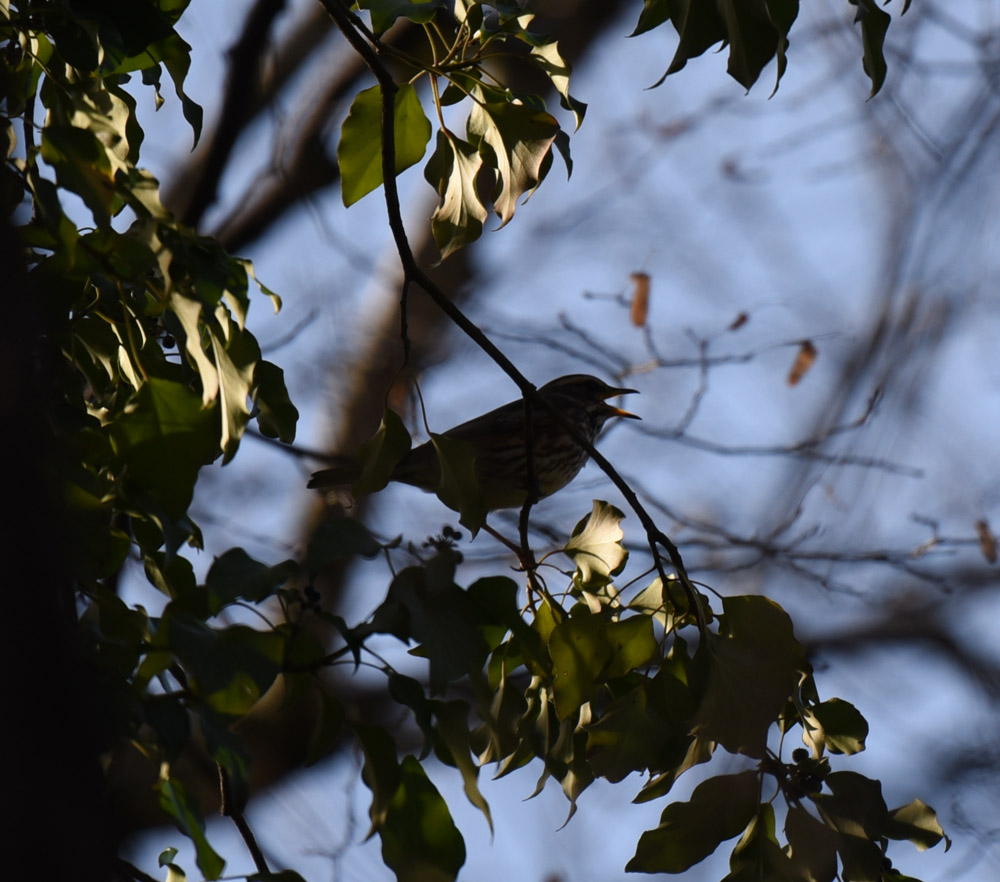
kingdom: Animalia
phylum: Chordata
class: Aves
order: Passeriformes
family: Turdidae
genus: Turdus
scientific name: Turdus philomelos
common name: Song thrush
